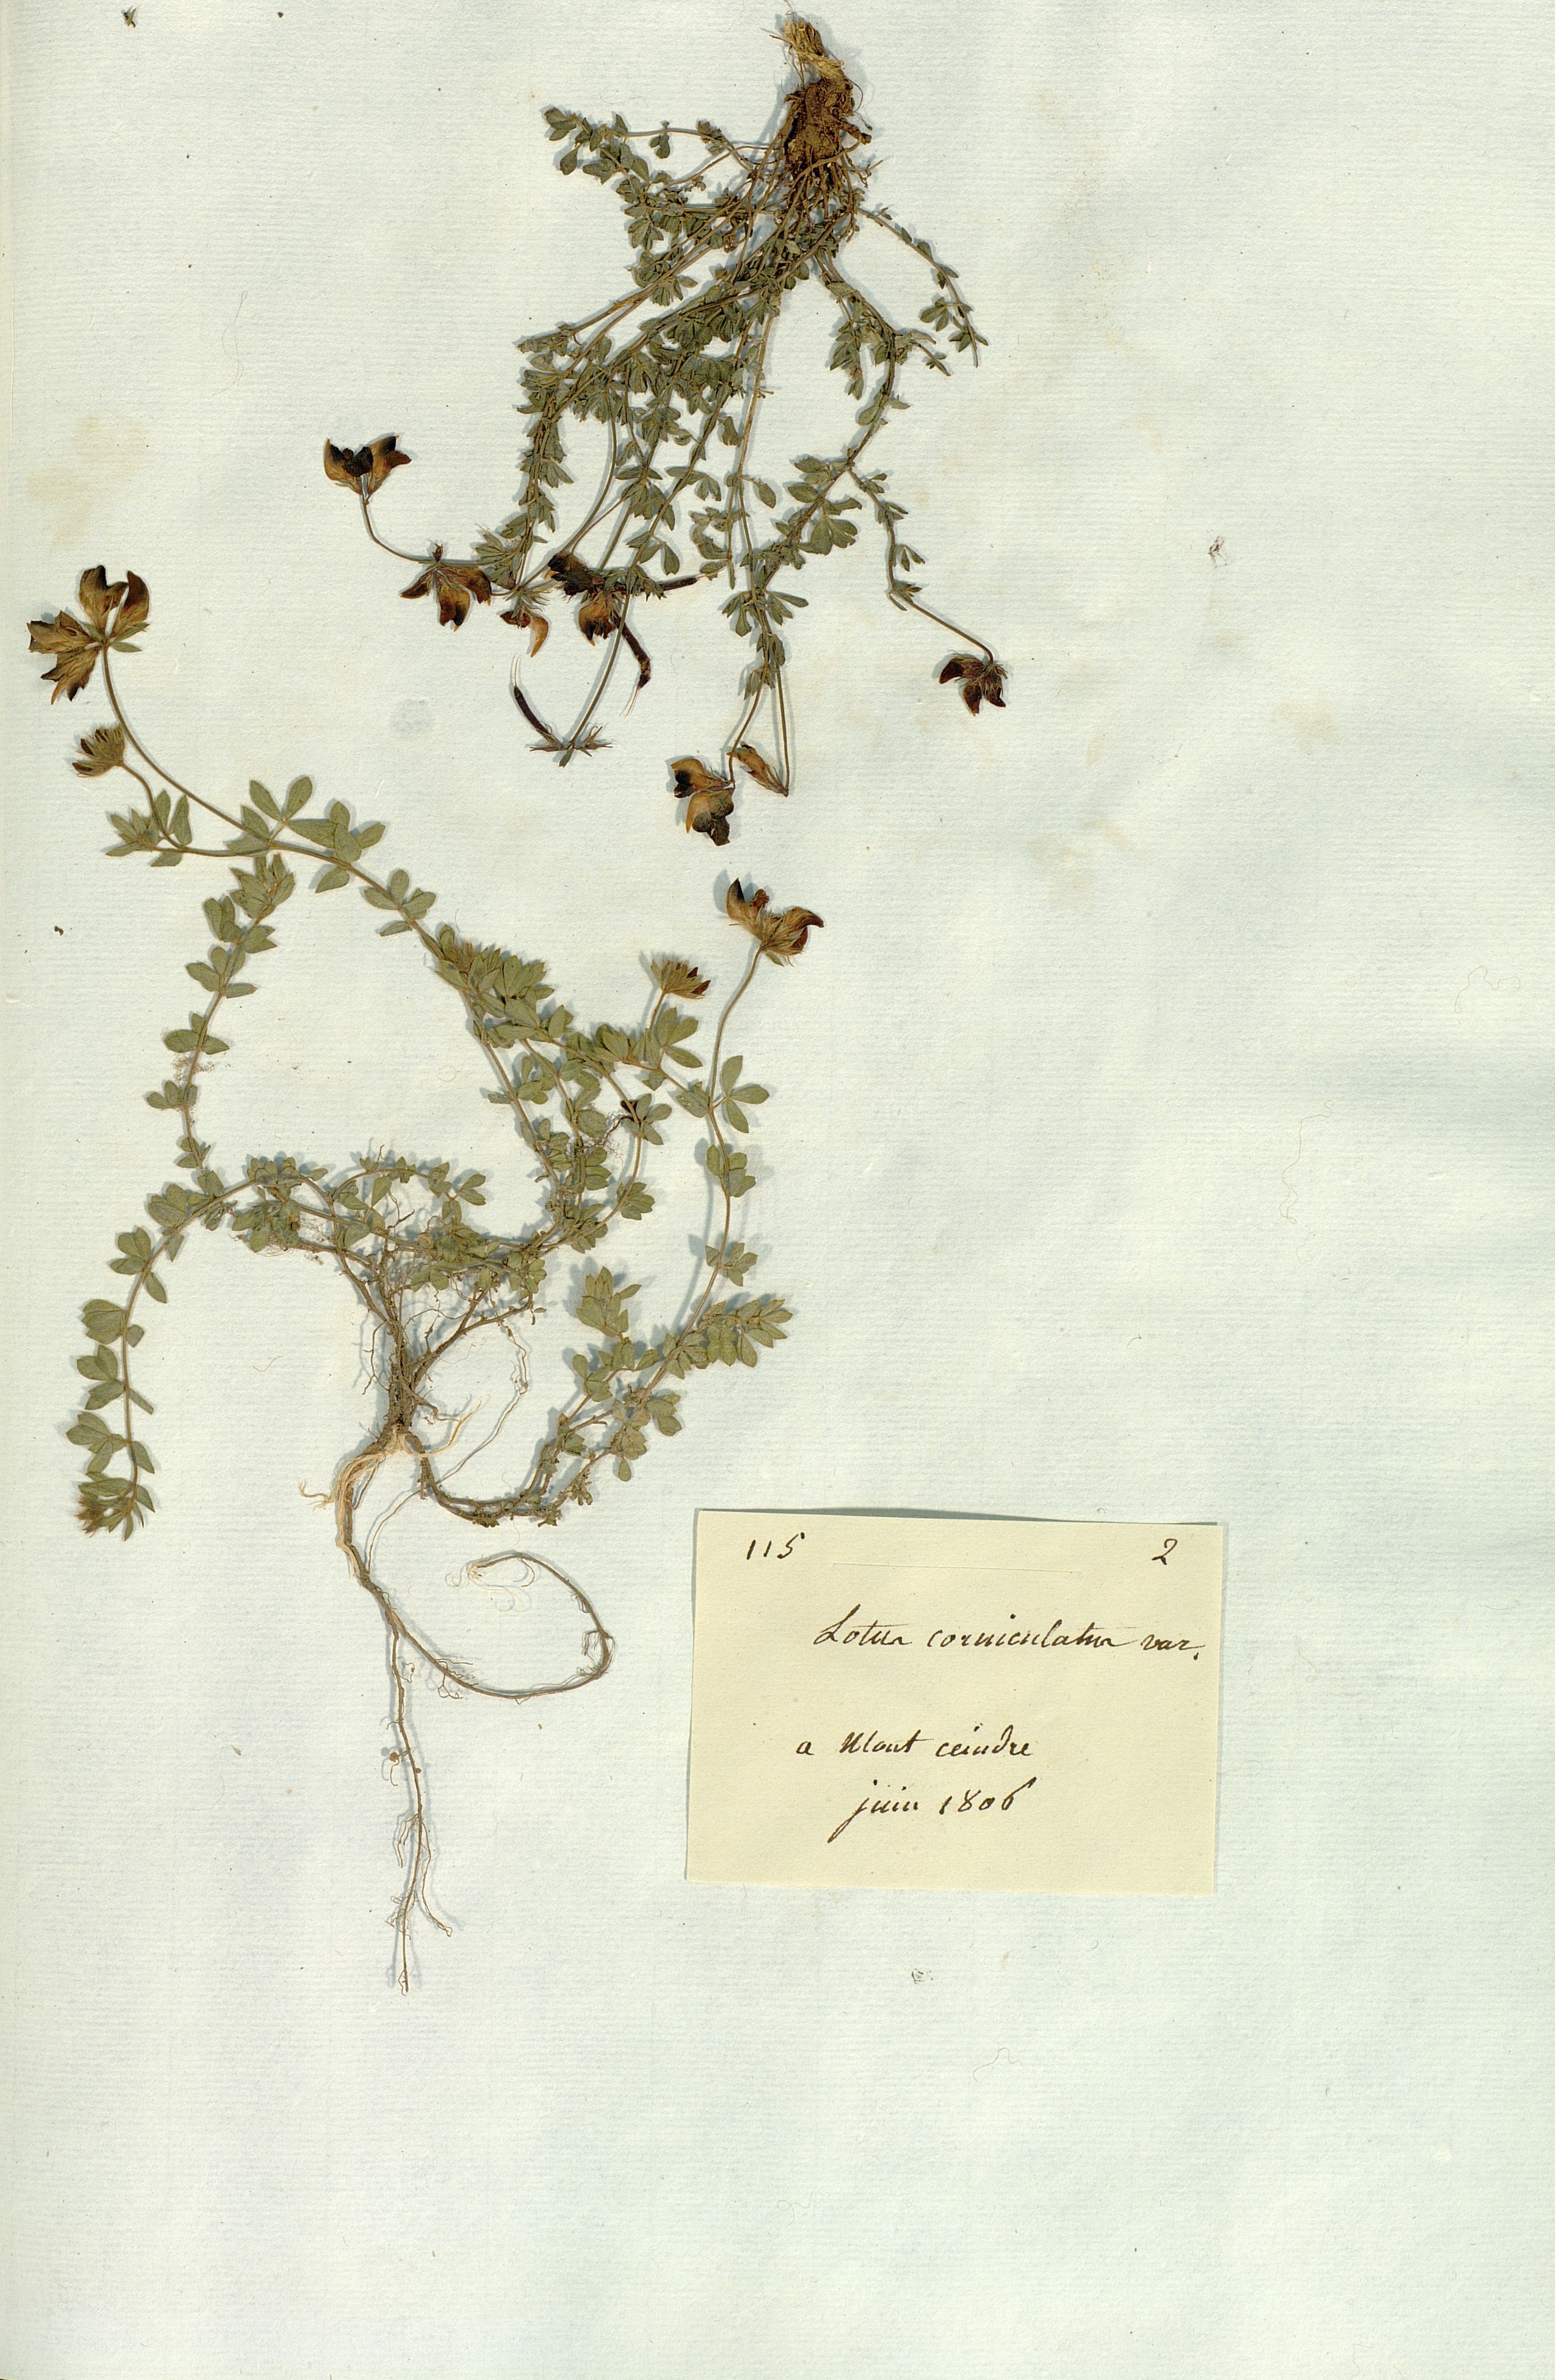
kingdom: Plantae
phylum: Tracheophyta
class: Magnoliopsida
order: Fabales
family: Fabaceae
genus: Lotus
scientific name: Lotus corniculatus
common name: Common bird's-foot-trefoil
